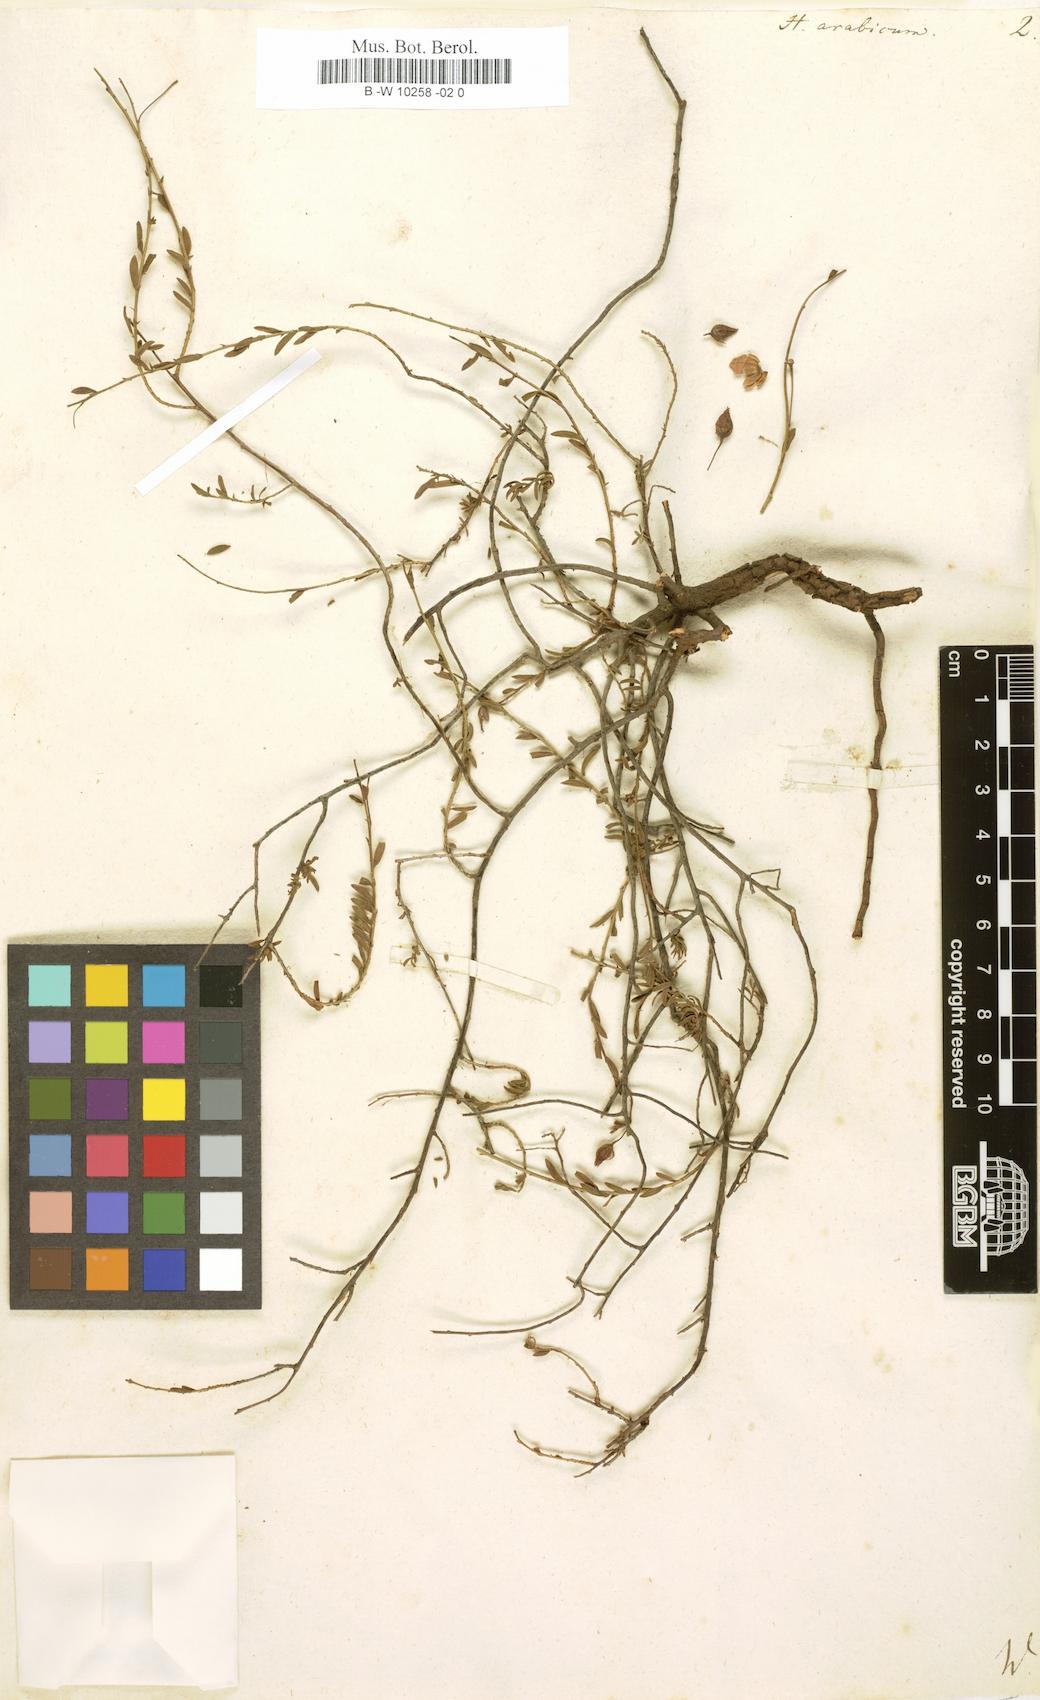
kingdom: Plantae
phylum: Tracheophyta
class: Magnoliopsida
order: Malvales
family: Cistaceae
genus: Fumana
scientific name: Fumana arabica
